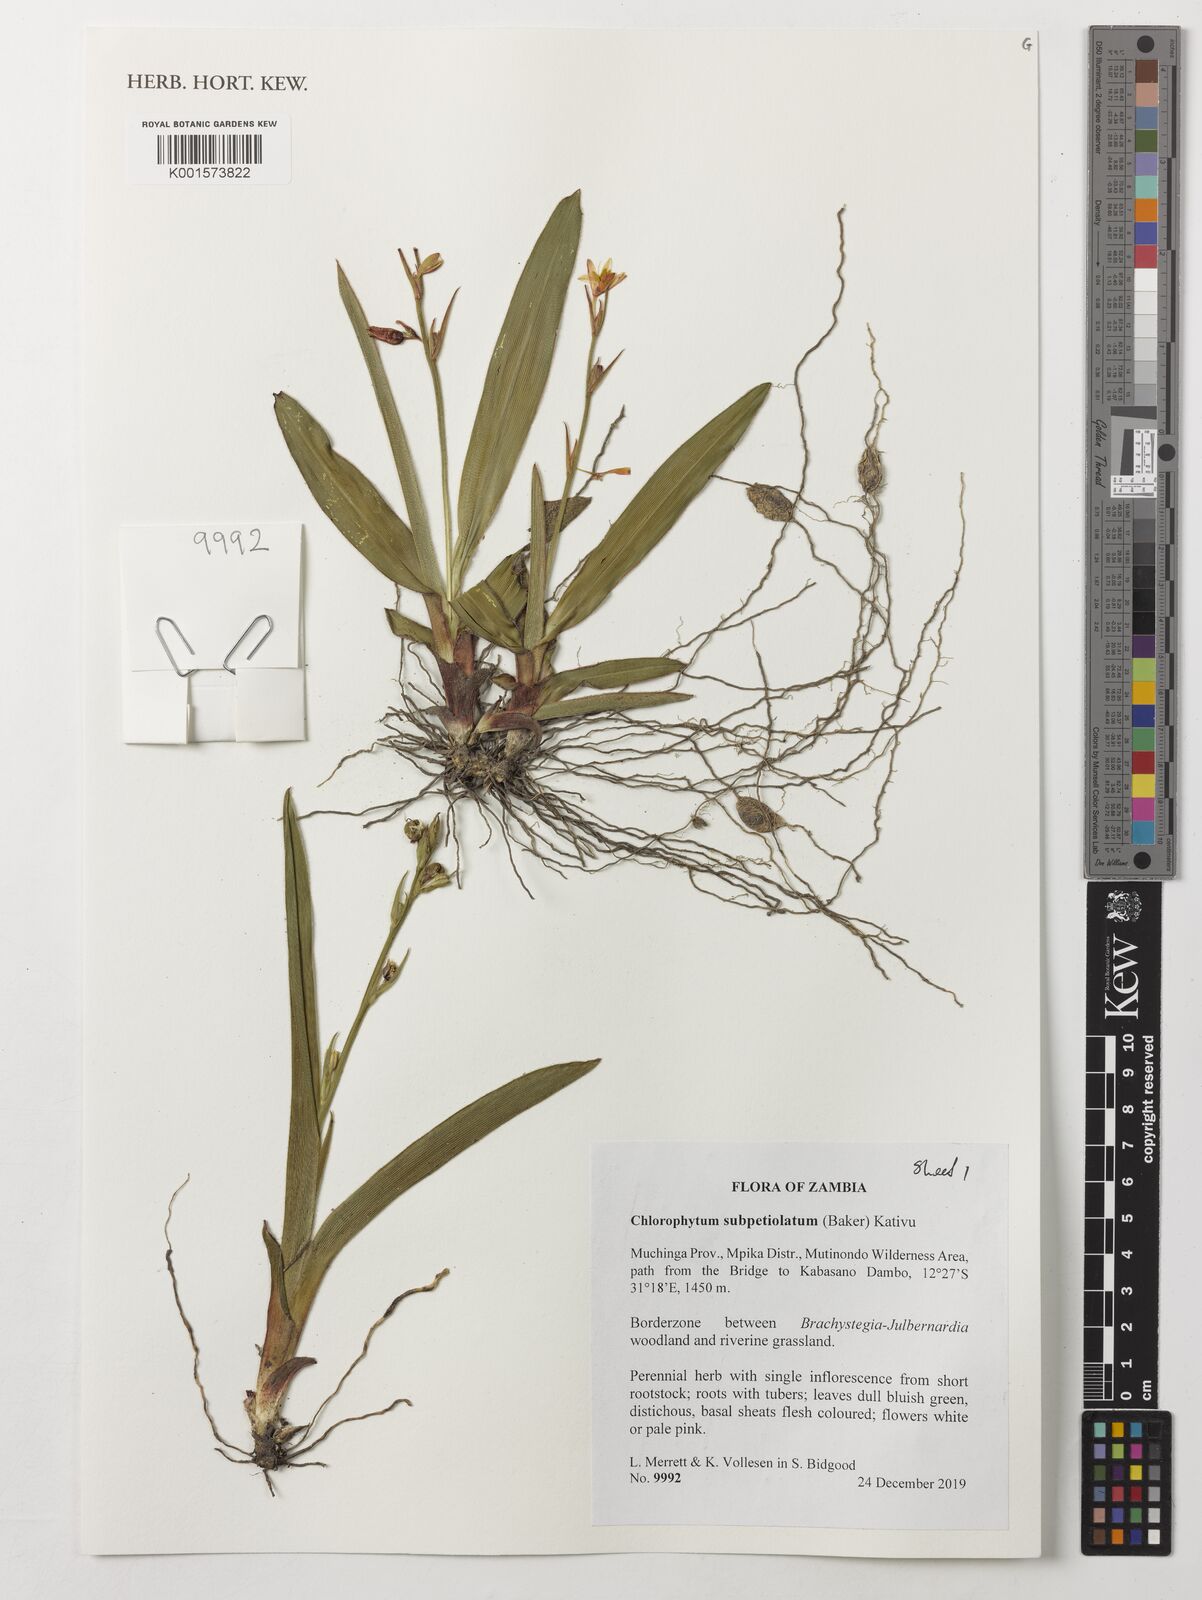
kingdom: Plantae
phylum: Tracheophyta
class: Liliopsida
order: Asparagales
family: Asparagaceae
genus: Chlorophytum
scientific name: Chlorophytum subpetiolatum
